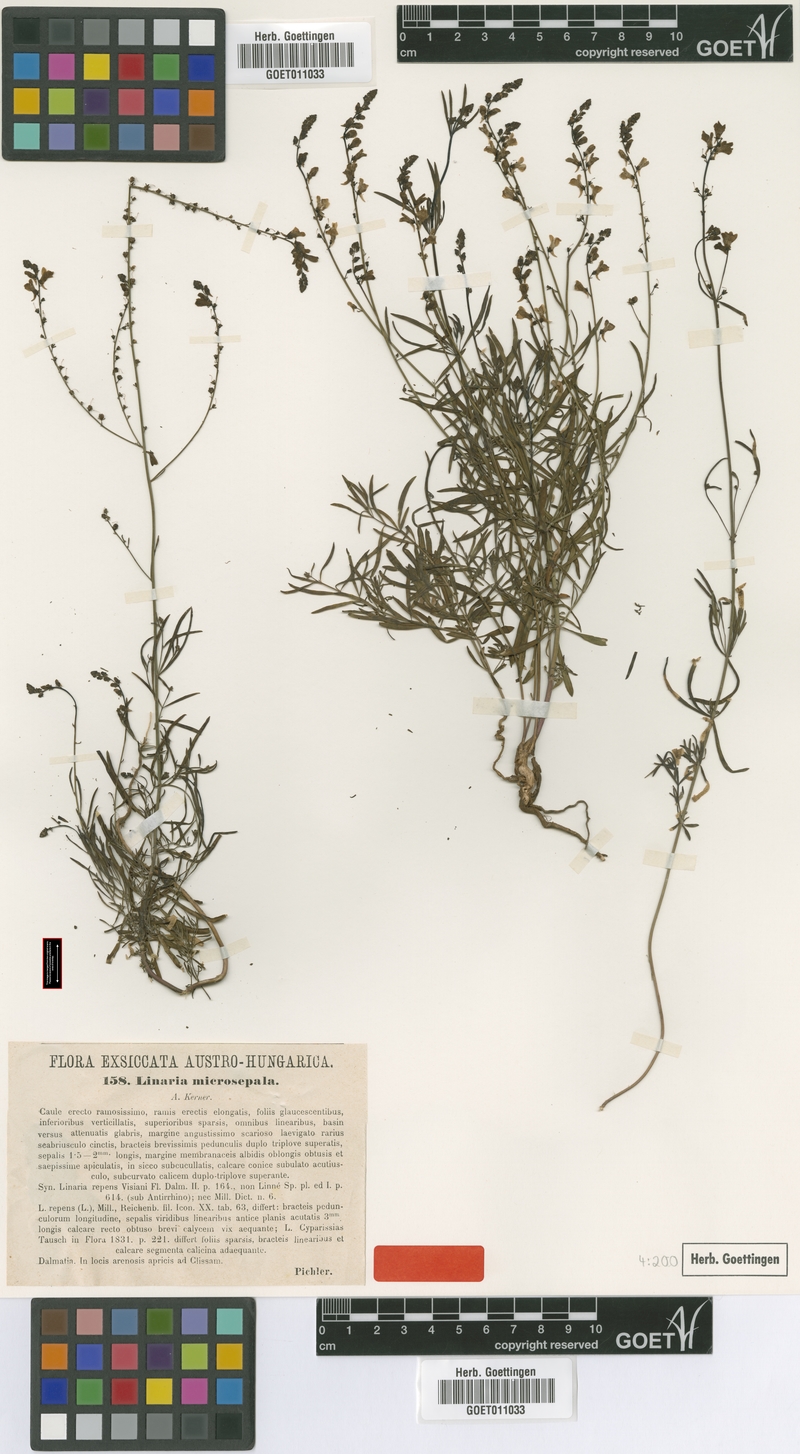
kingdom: Plantae
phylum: Tracheophyta
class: Magnoliopsida
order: Lamiales
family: Plantaginaceae
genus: Linaria
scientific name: Linaria microsepala
